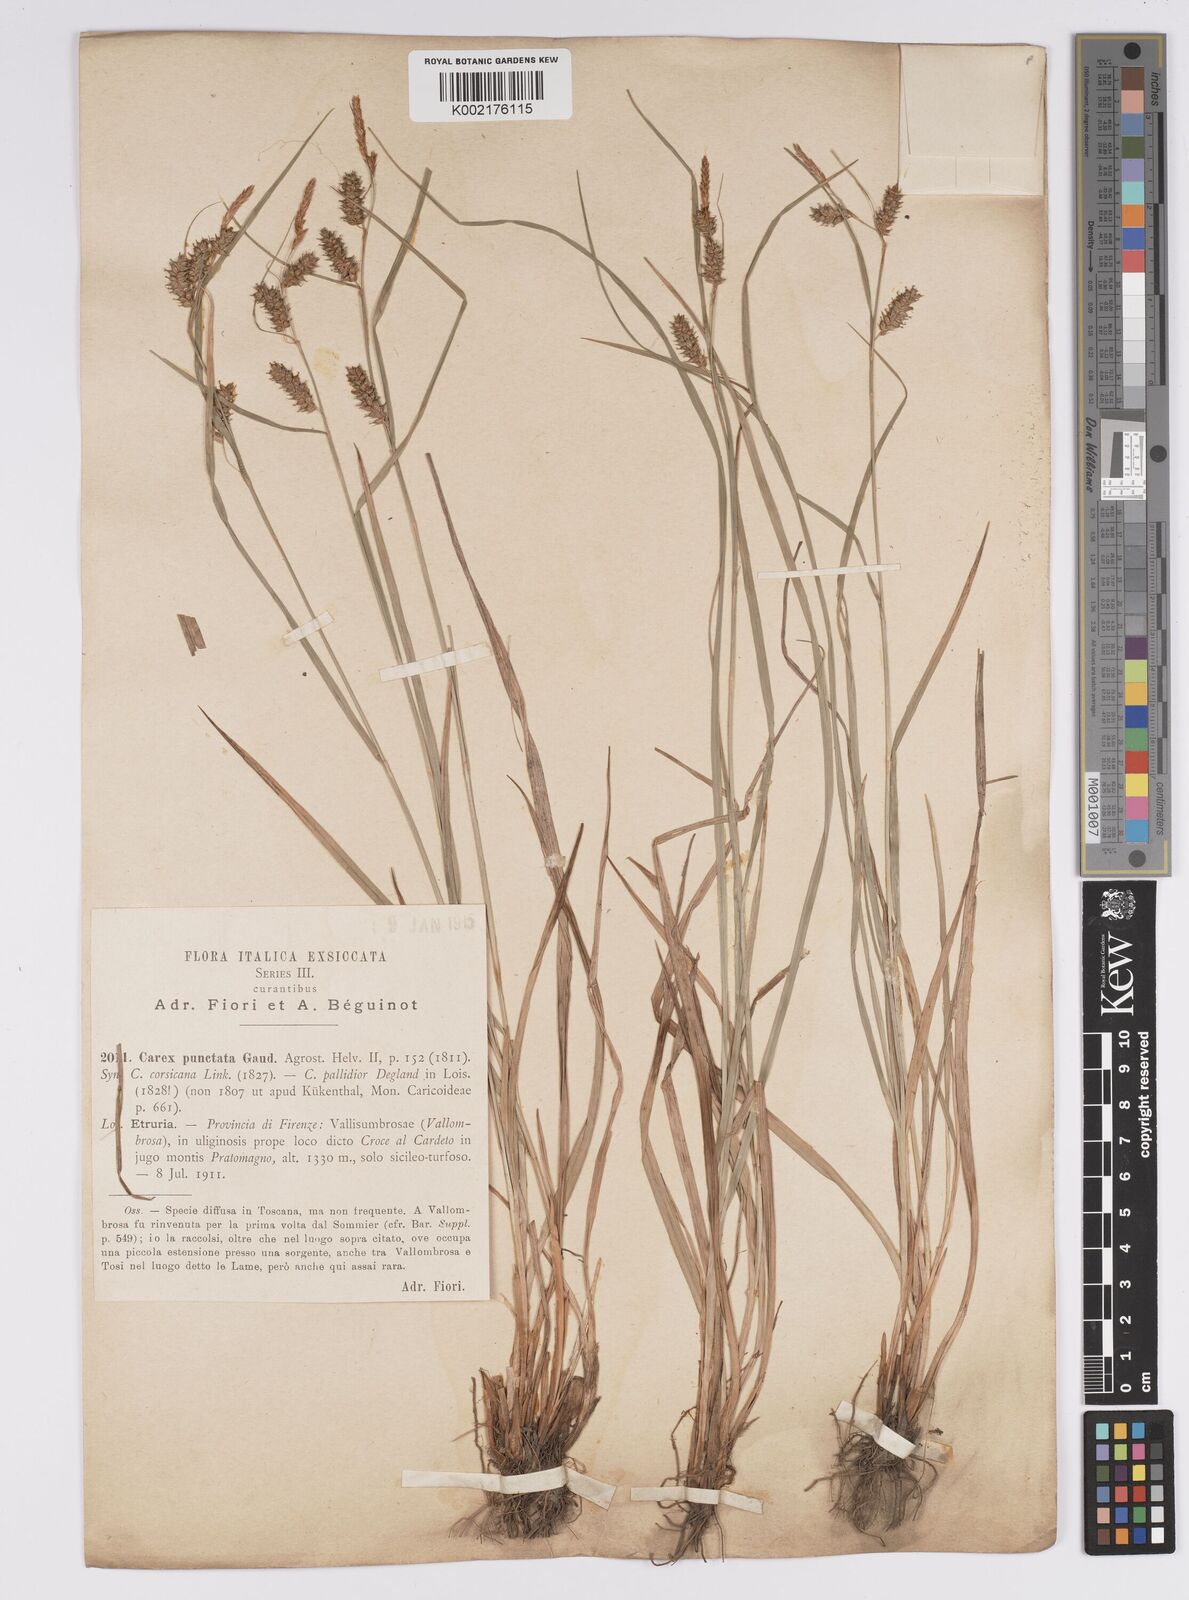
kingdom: Plantae
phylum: Tracheophyta
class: Liliopsida
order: Poales
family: Cyperaceae
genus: Carex
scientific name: Carex punctata
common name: Dotted sedge
